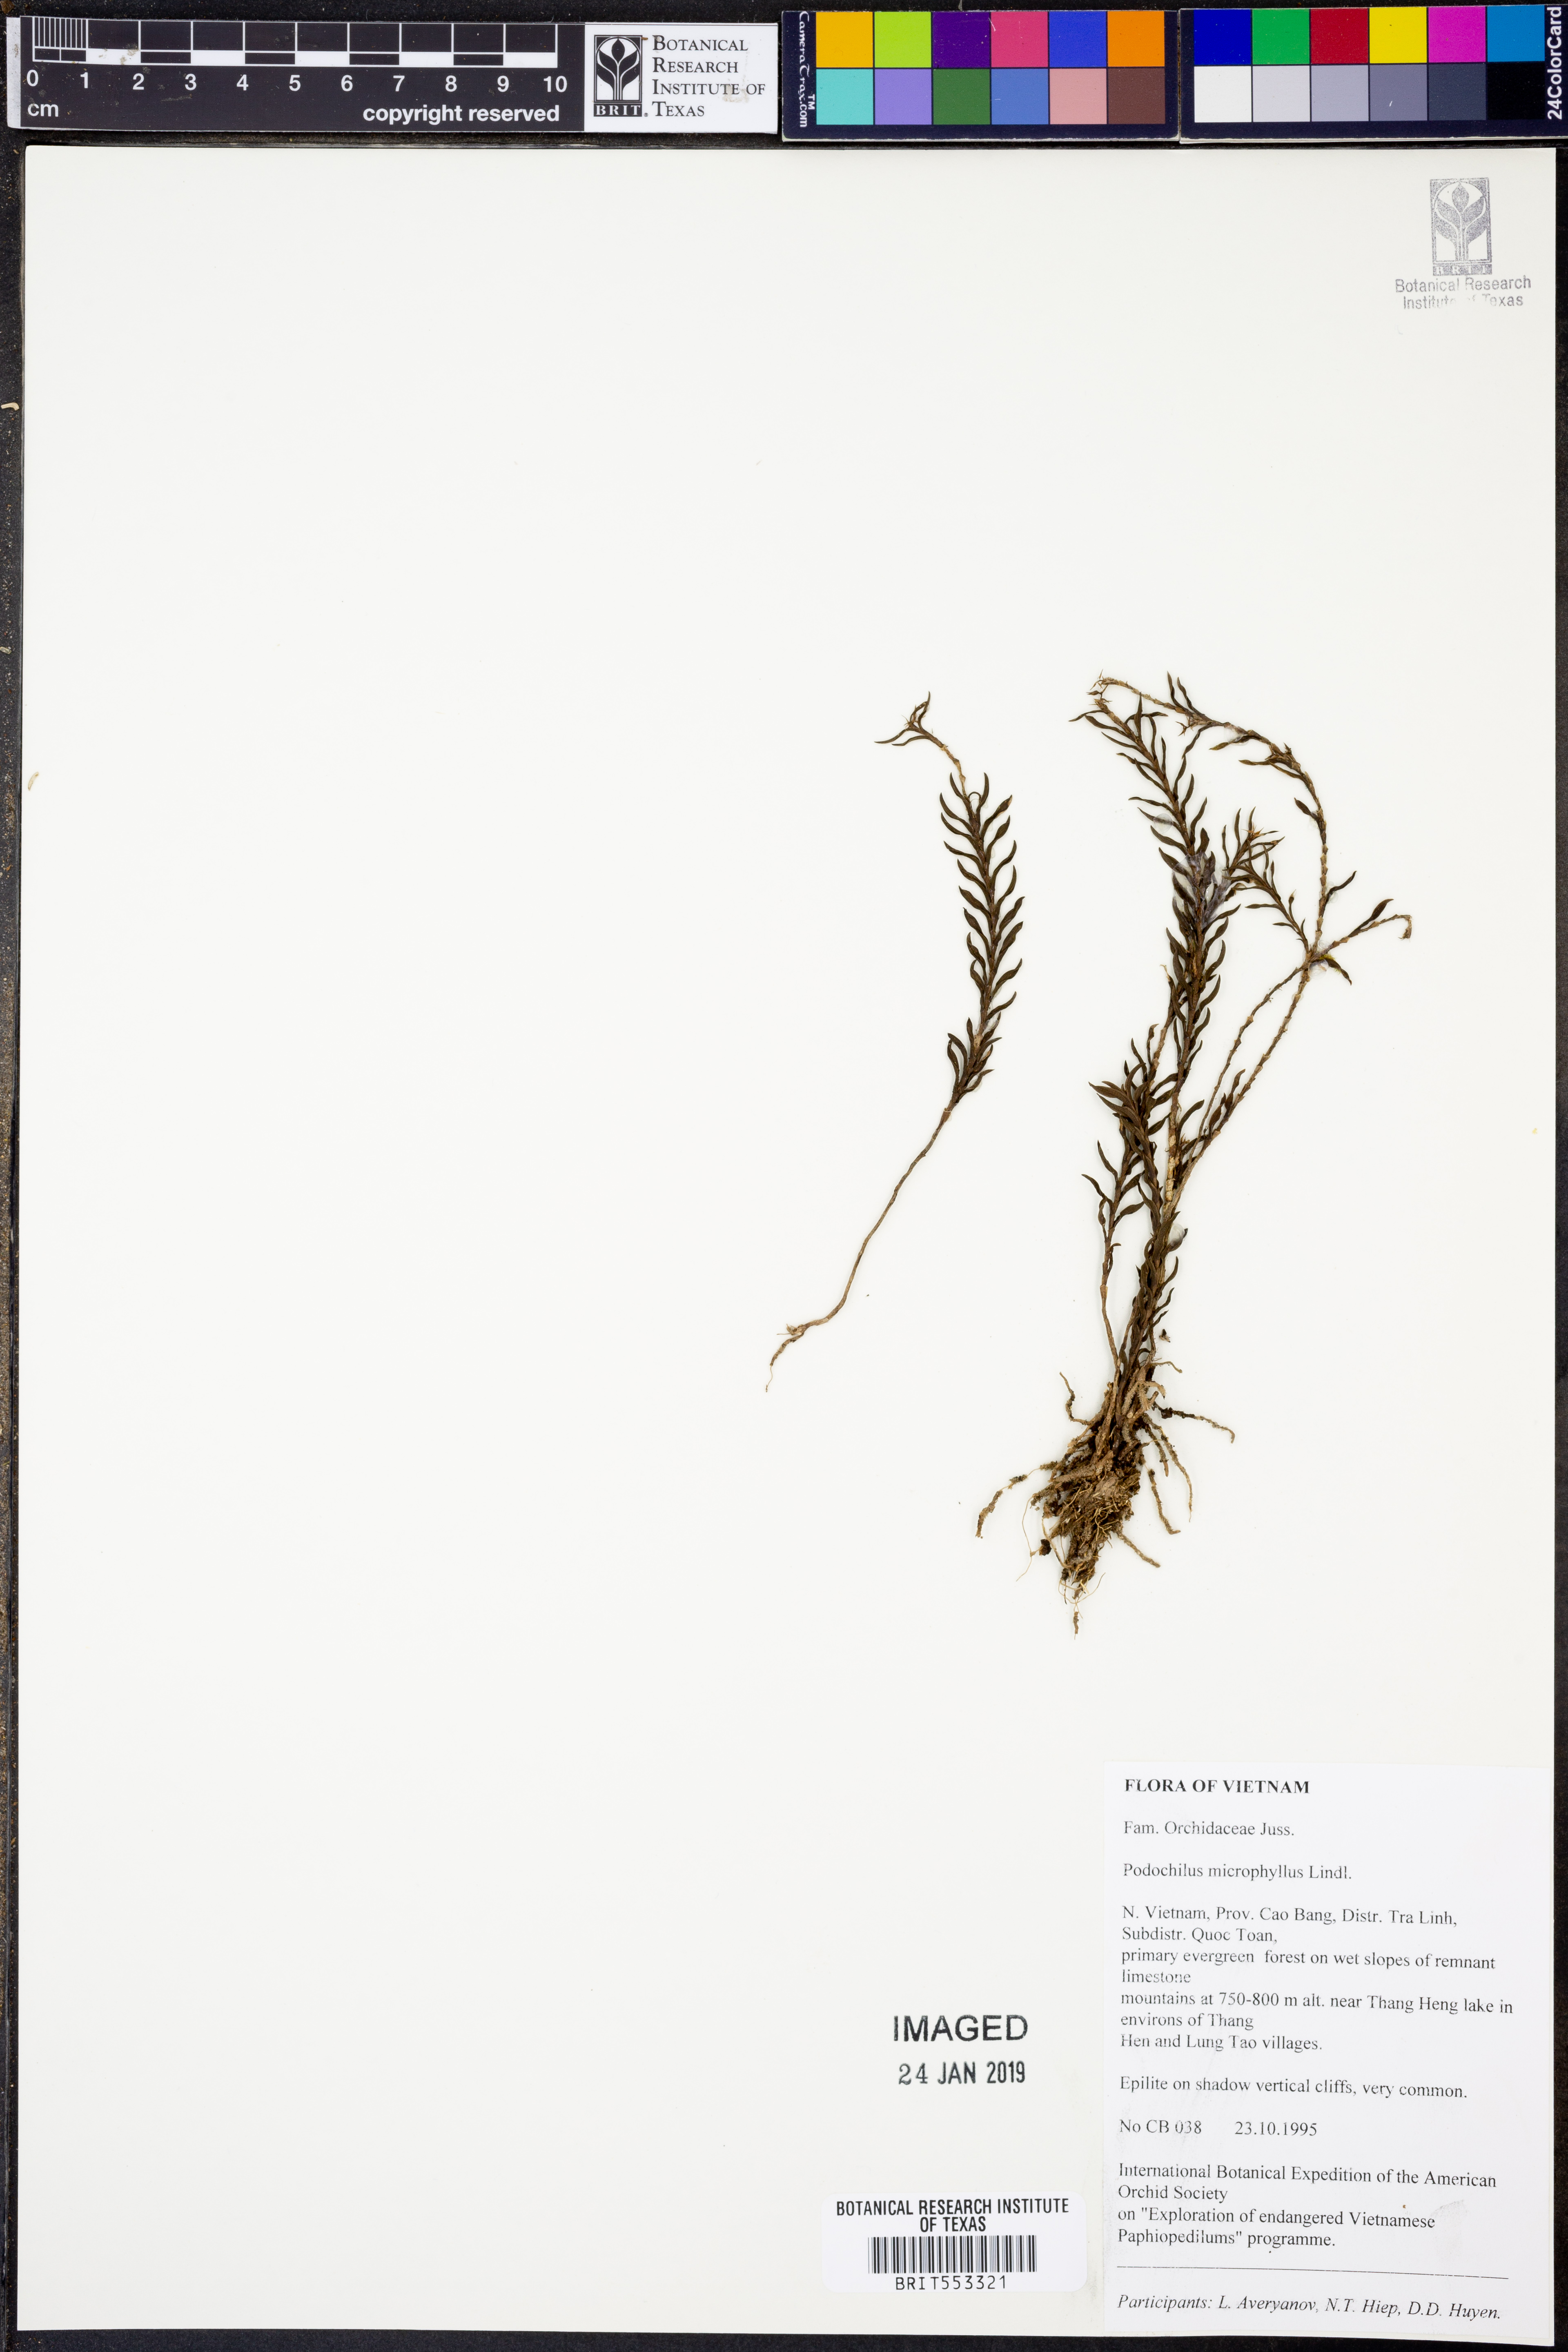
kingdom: Plantae
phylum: Tracheophyta
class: Liliopsida
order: Asparagales
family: Orchidaceae
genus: Podochilus
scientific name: Podochilus microphyllus
